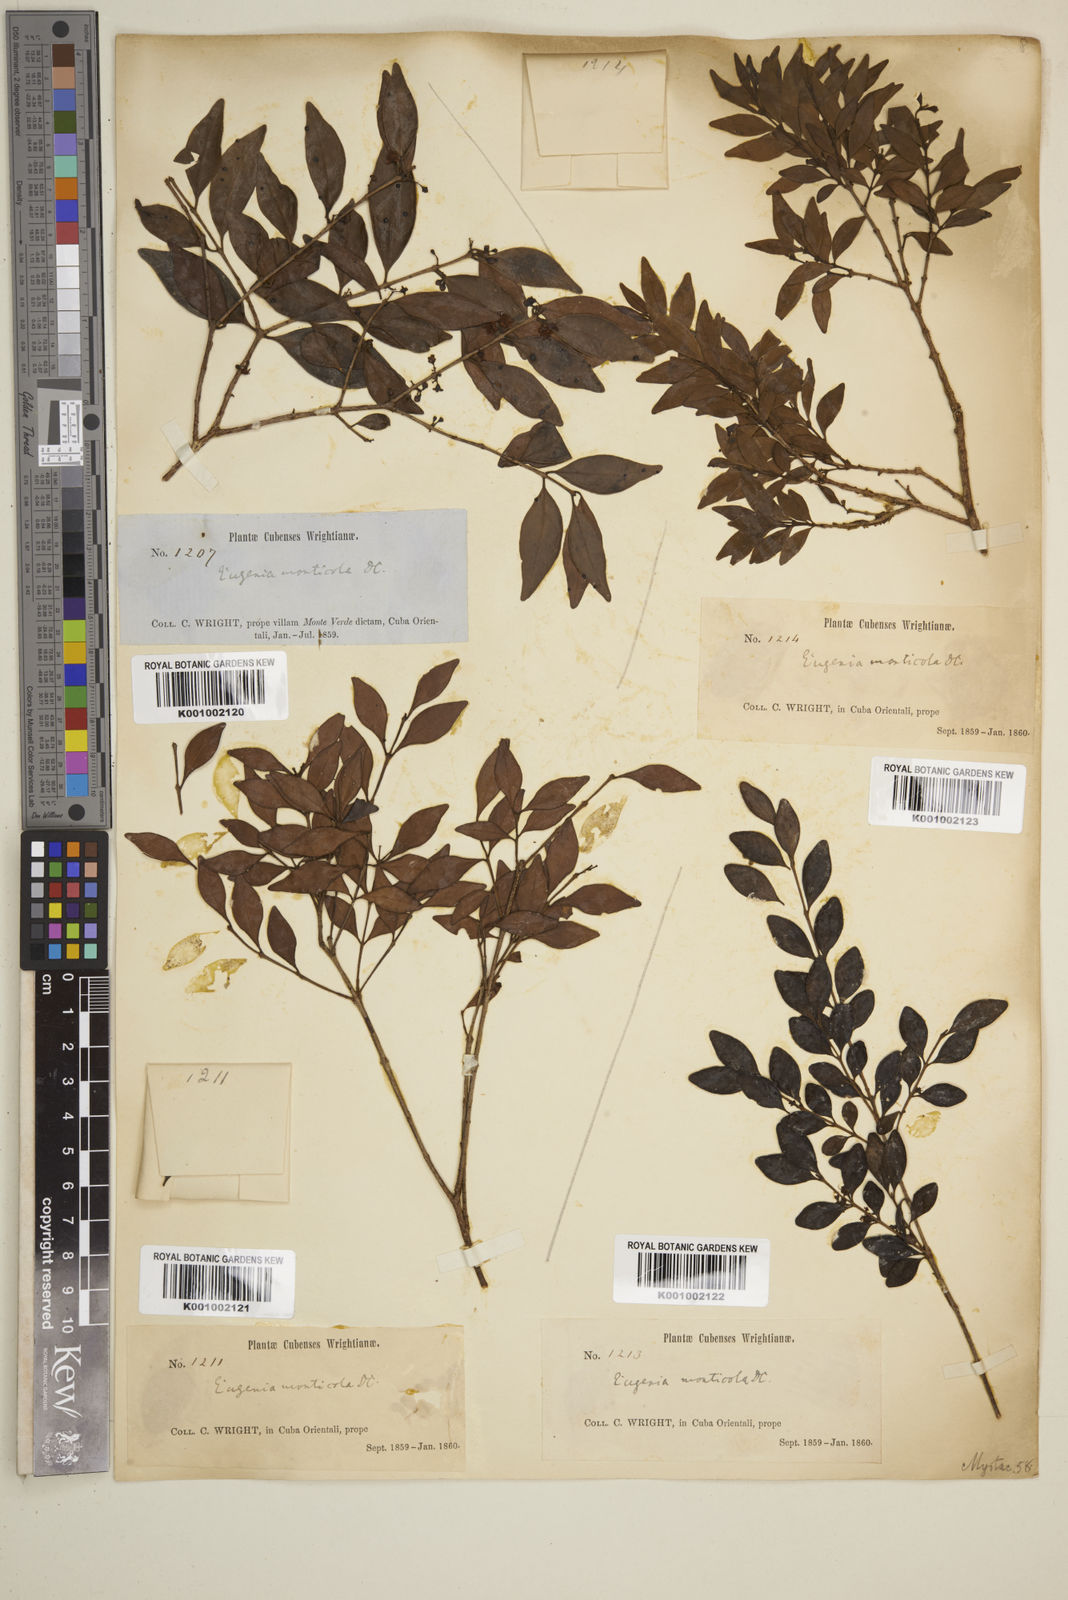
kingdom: Plantae
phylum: Tracheophyta
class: Magnoliopsida
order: Myrtales
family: Myrtaceae
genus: Eugenia
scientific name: Eugenia monticola
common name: Birds berry
